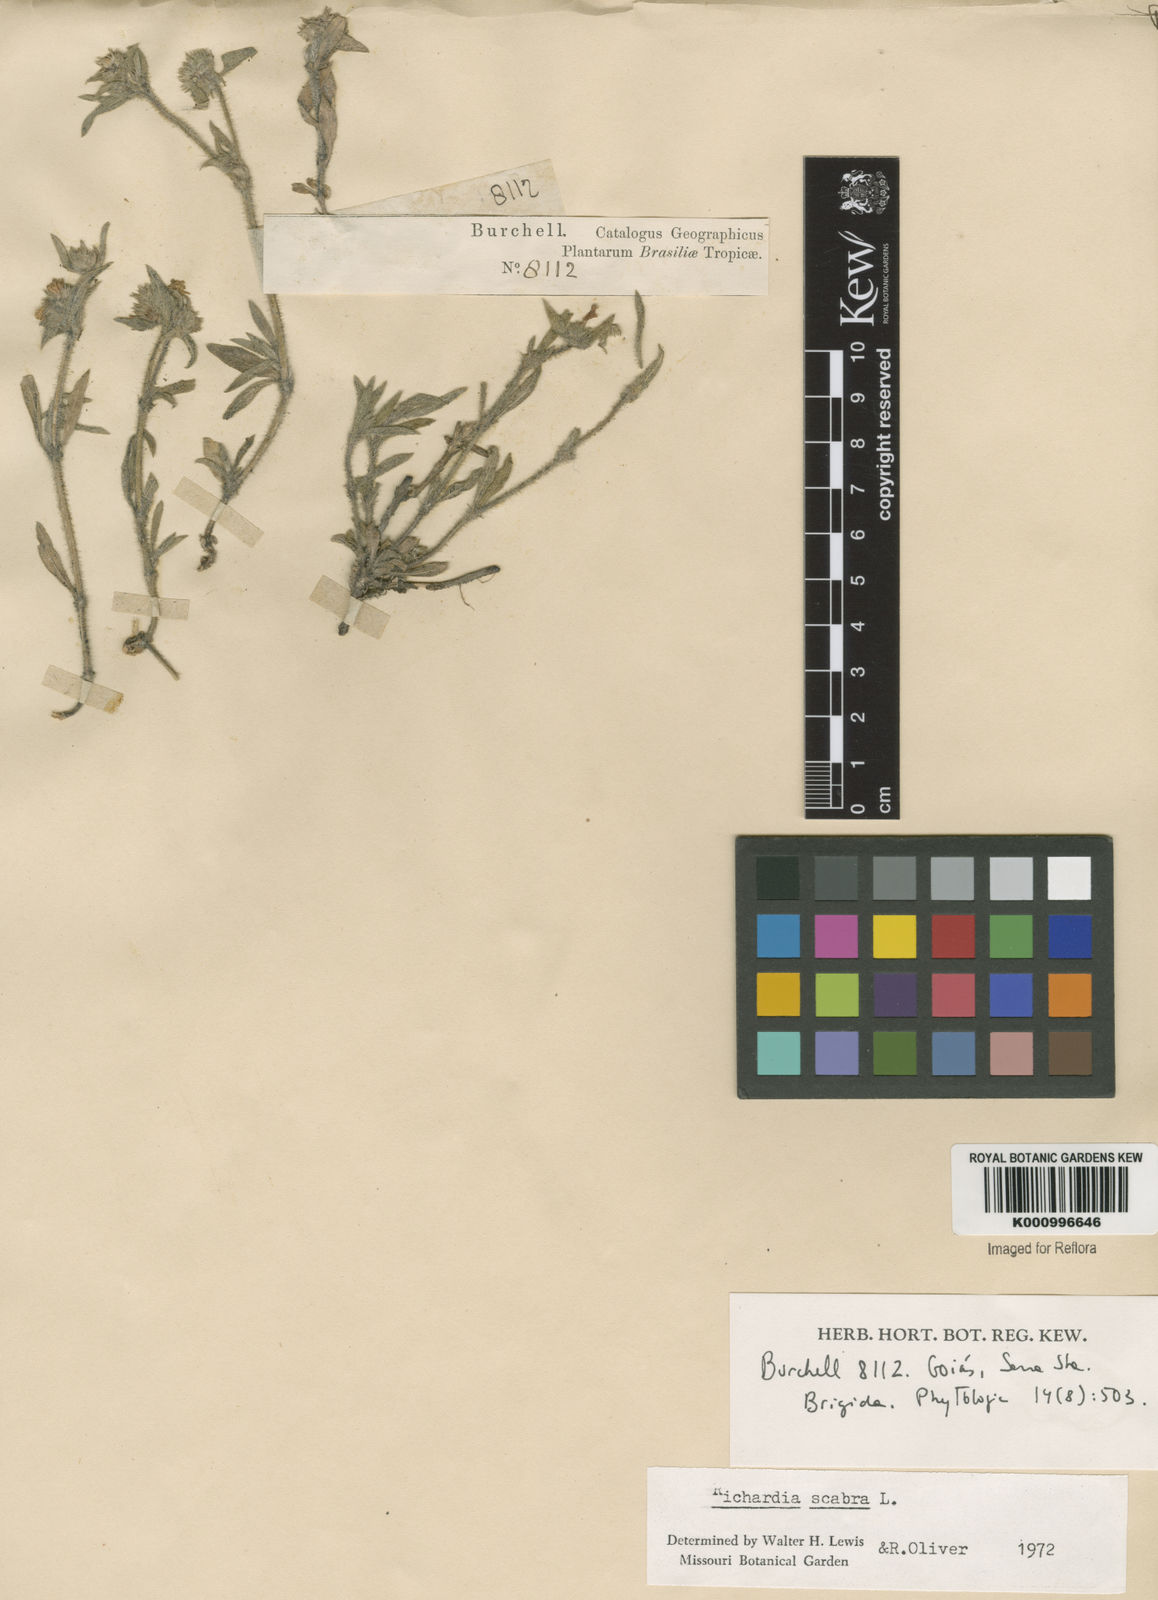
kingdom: Plantae
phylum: Tracheophyta
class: Magnoliopsida
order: Gentianales
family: Rubiaceae
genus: Richardia
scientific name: Richardia scabra
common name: Rough mexican clover
